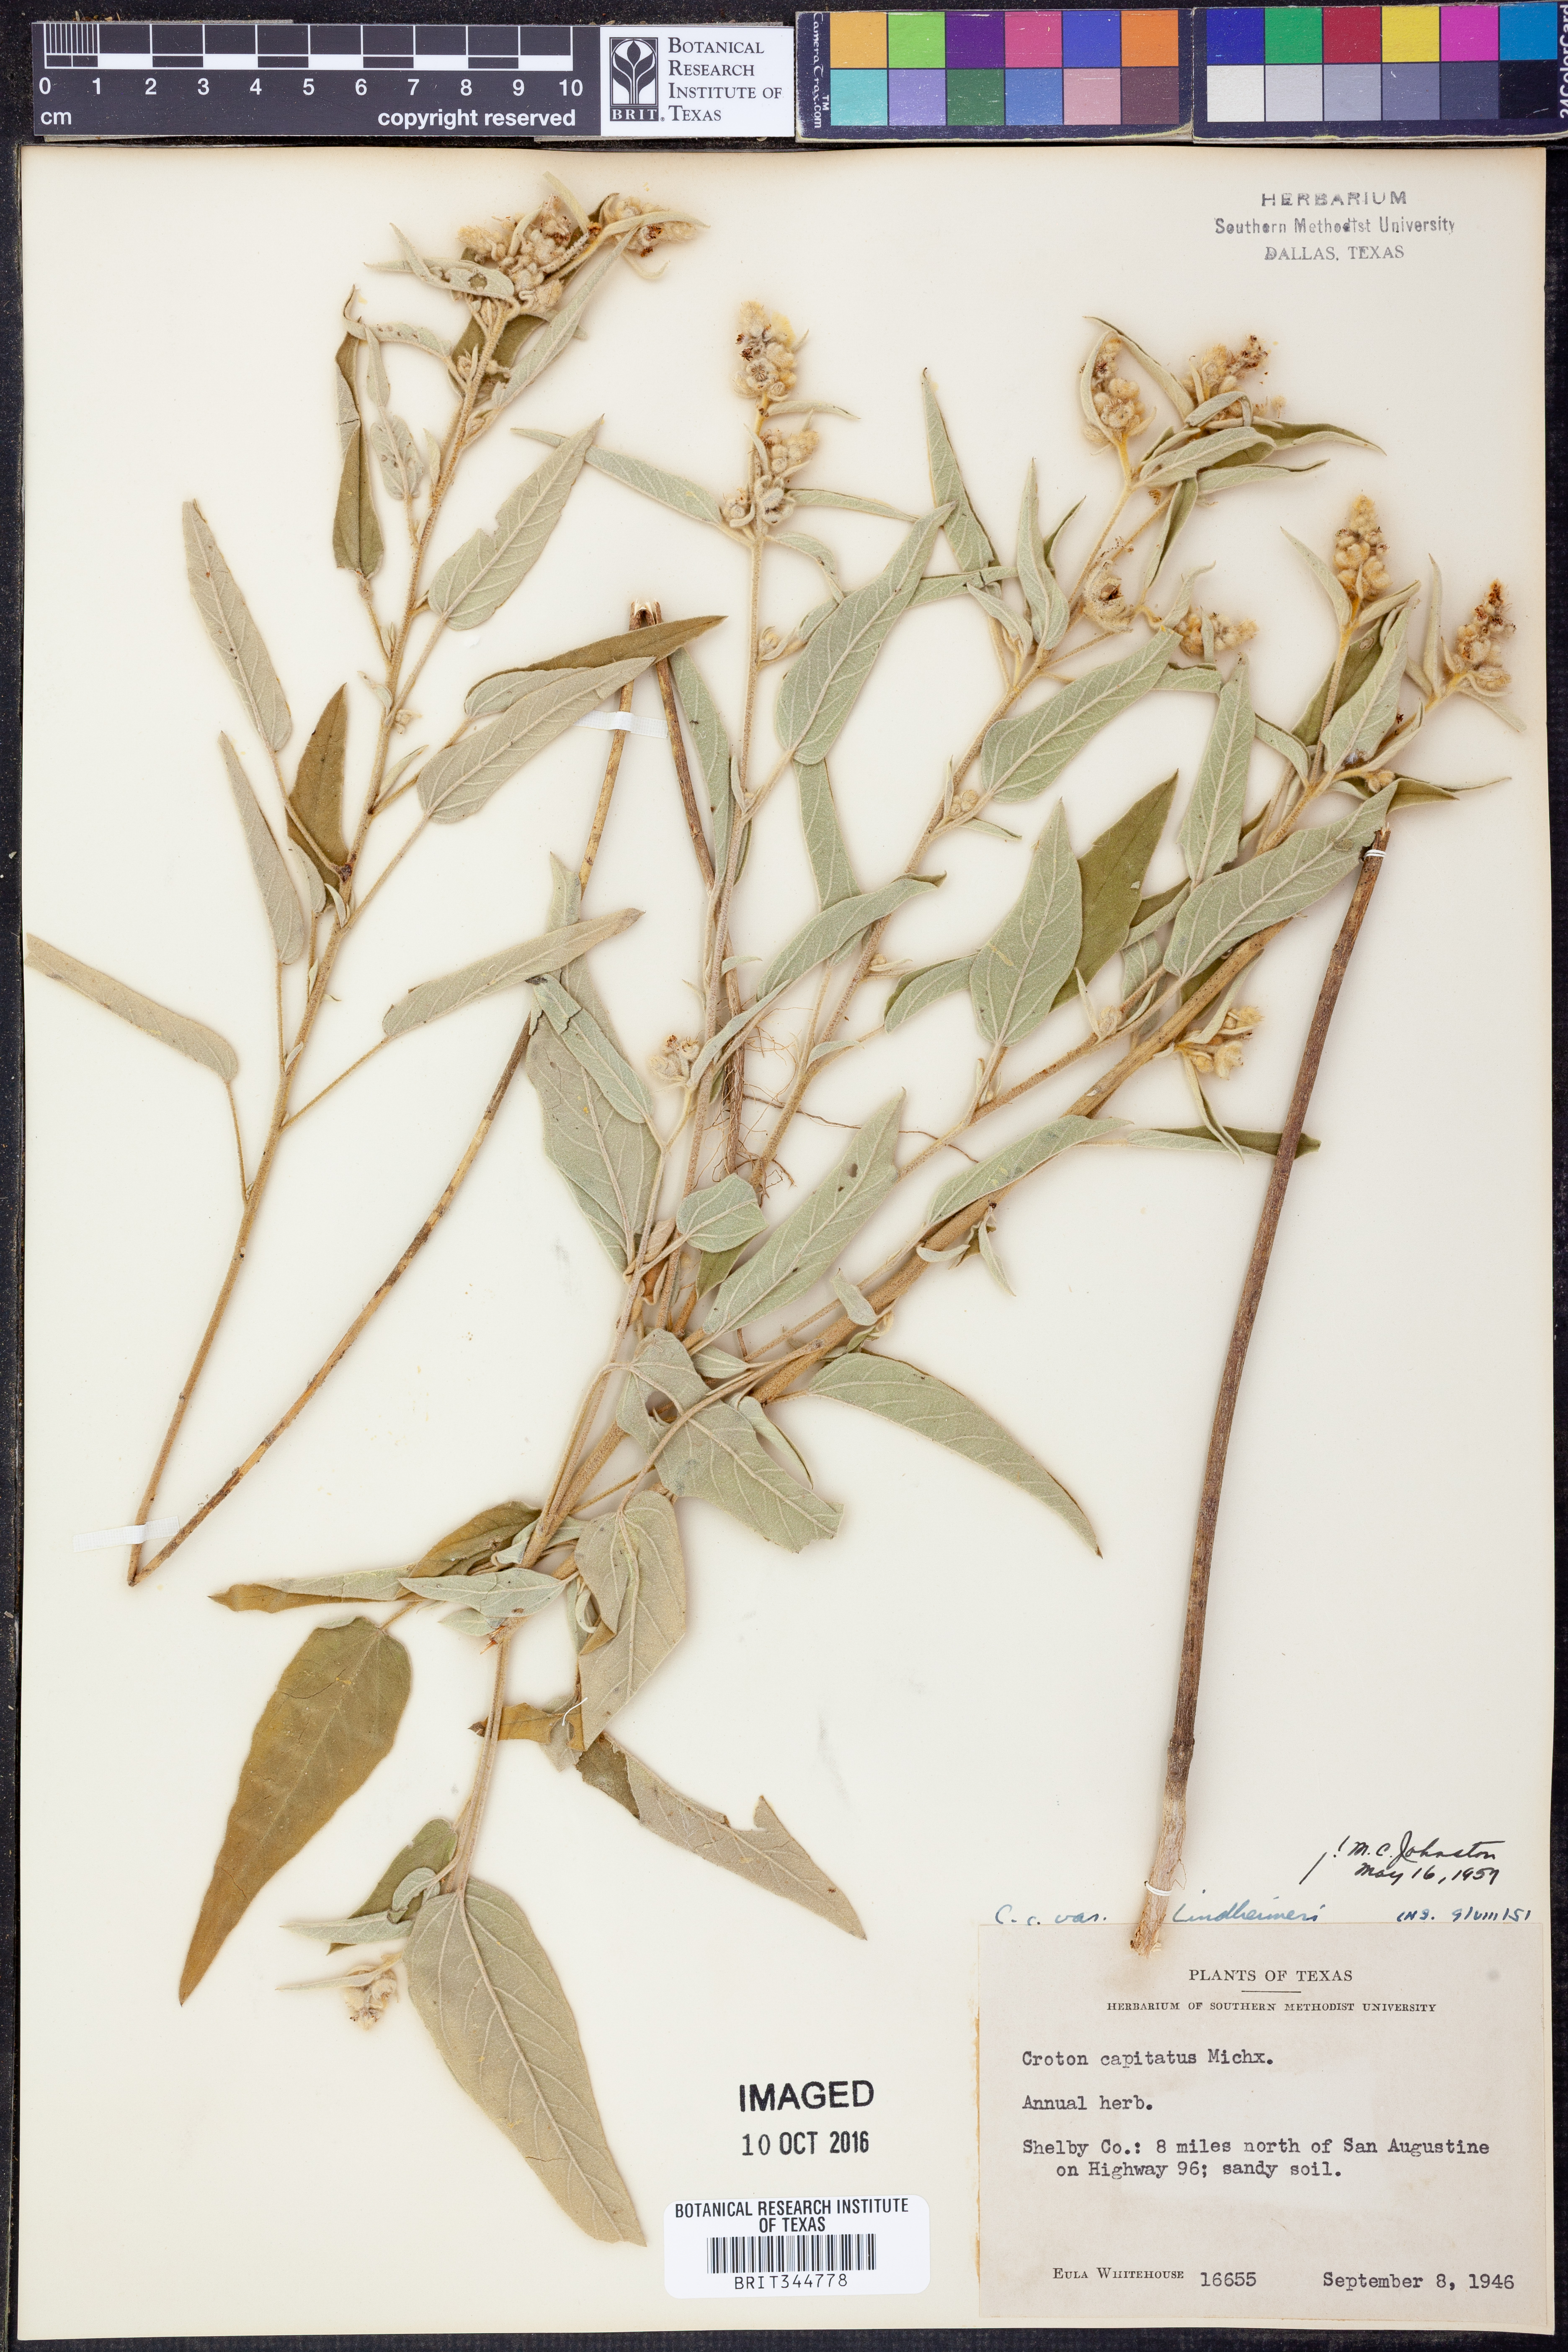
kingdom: Plantae
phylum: Tracheophyta
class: Magnoliopsida
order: Malpighiales
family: Euphorbiaceae
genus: Croton
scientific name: Croton lindheimeri
